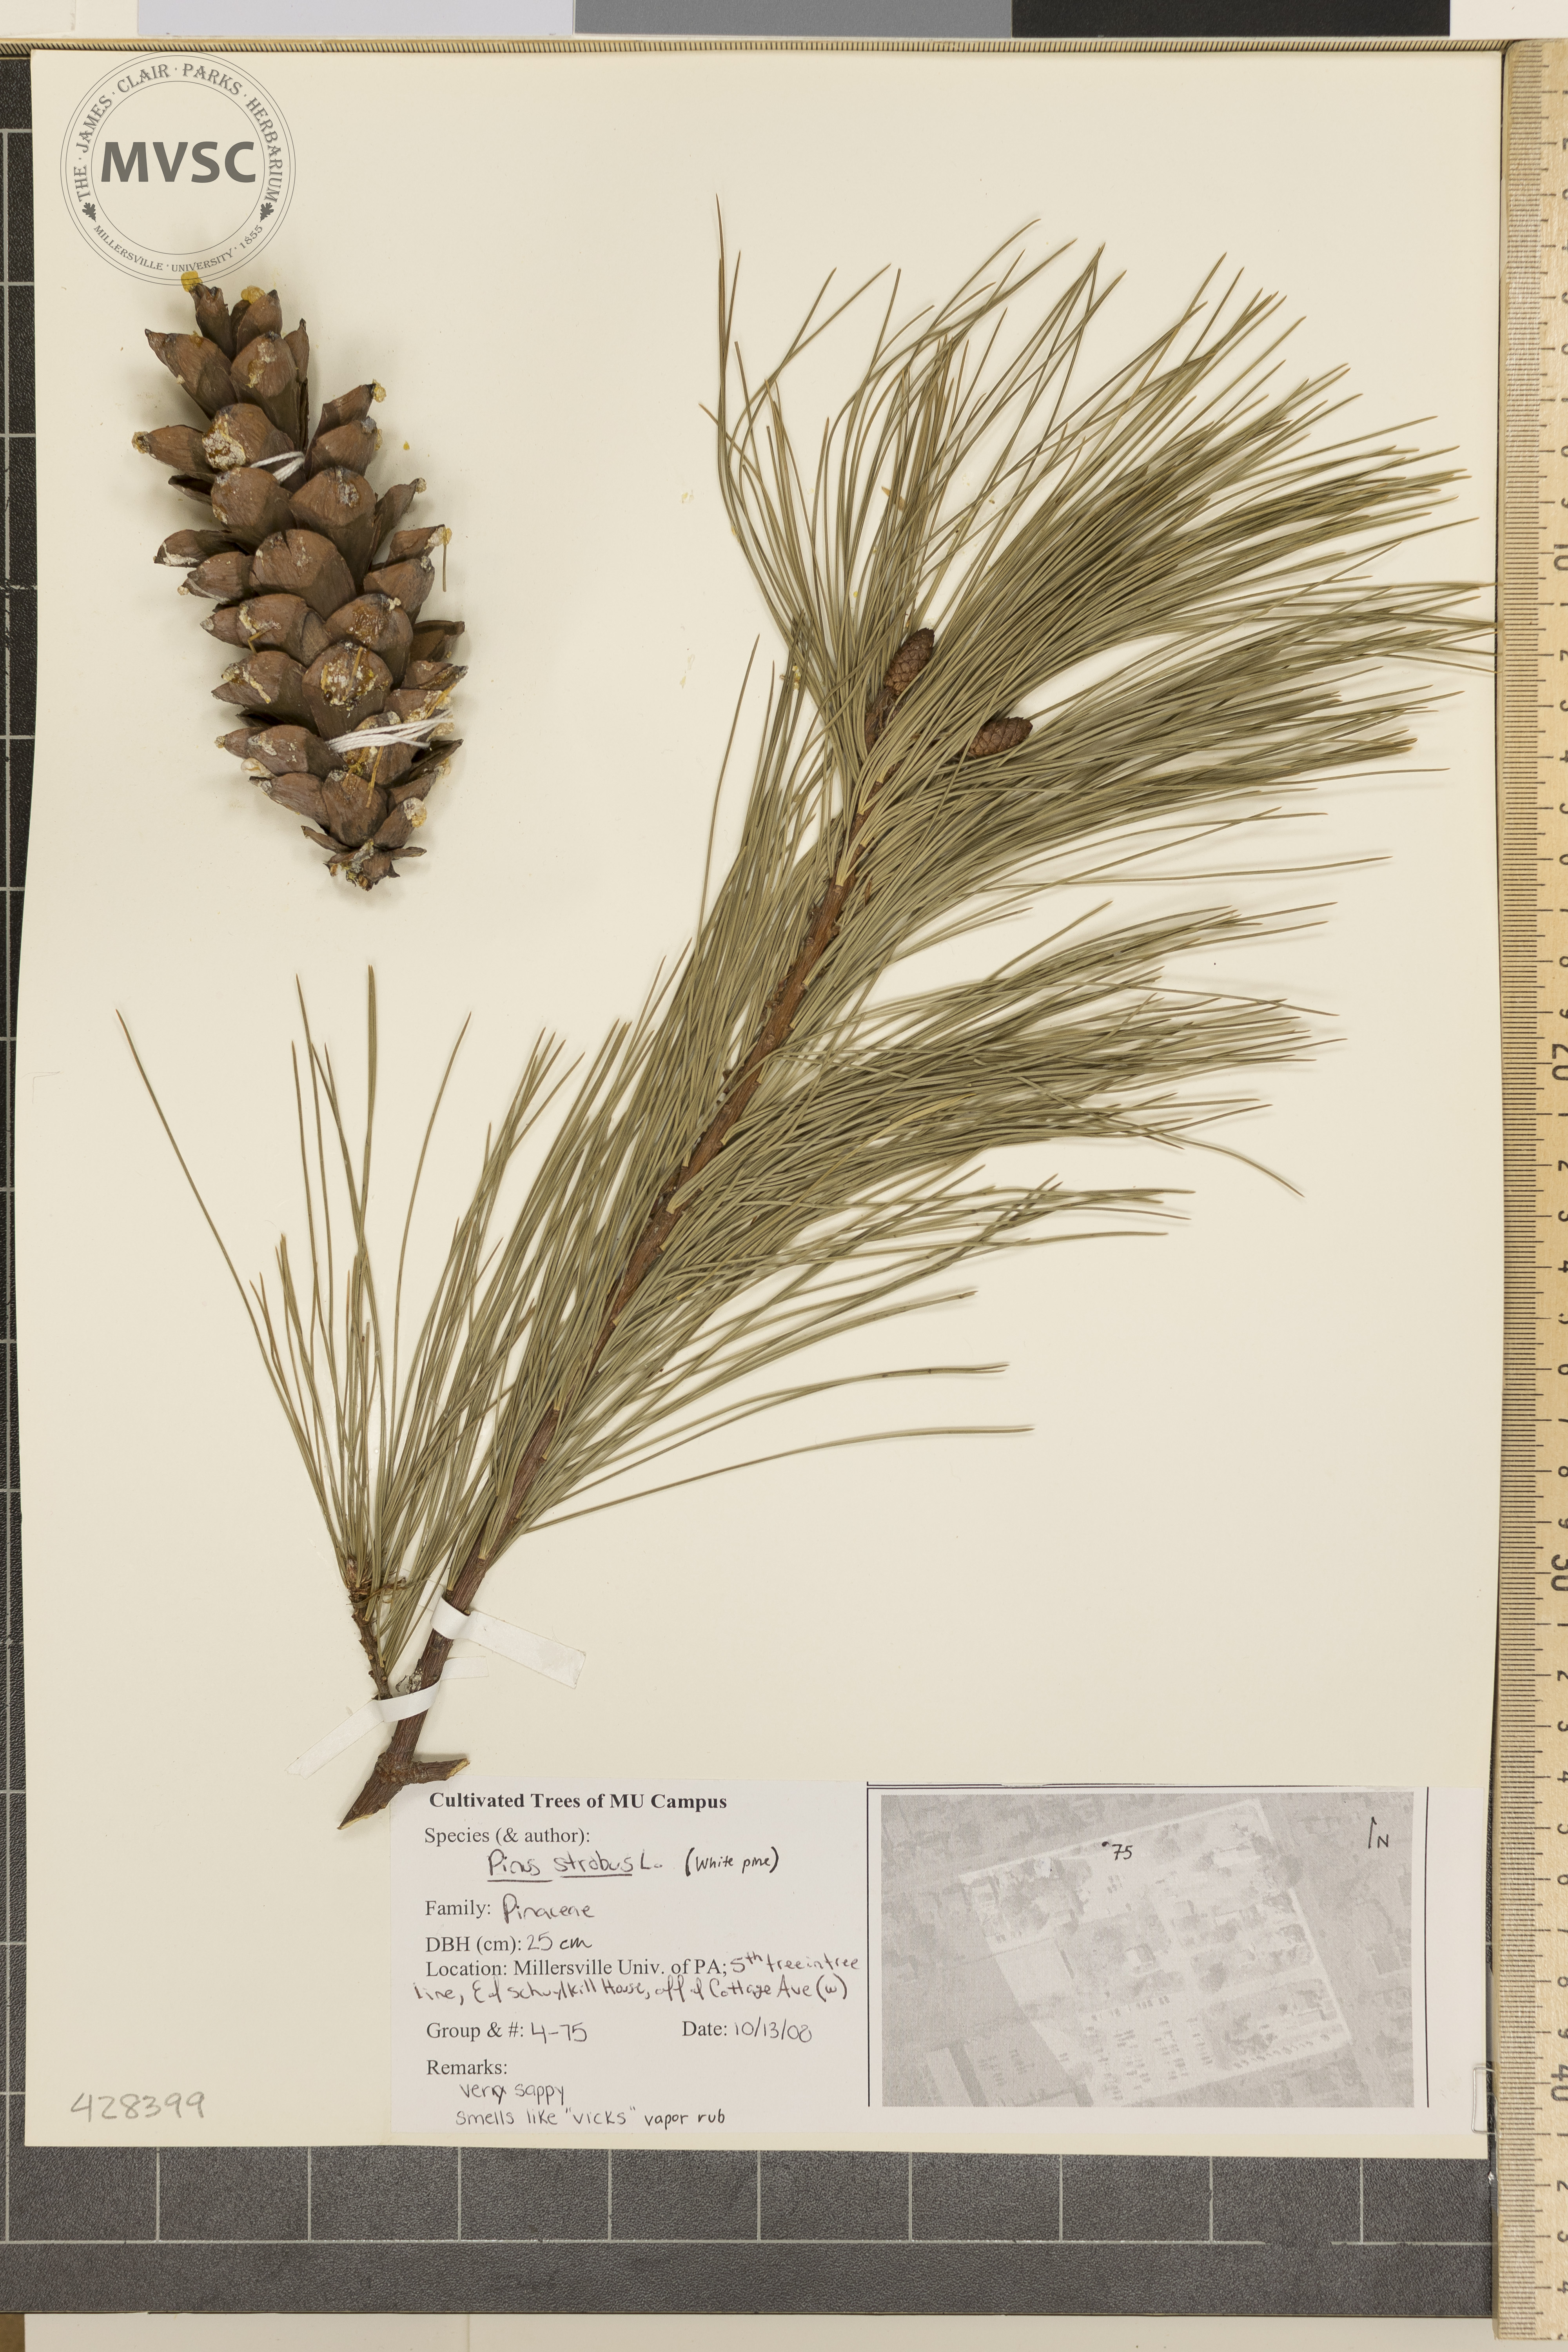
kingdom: Plantae
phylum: Tracheophyta
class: Pinopsida
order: Pinales
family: Pinaceae
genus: Pinus
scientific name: Pinus strobus
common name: White Pine
